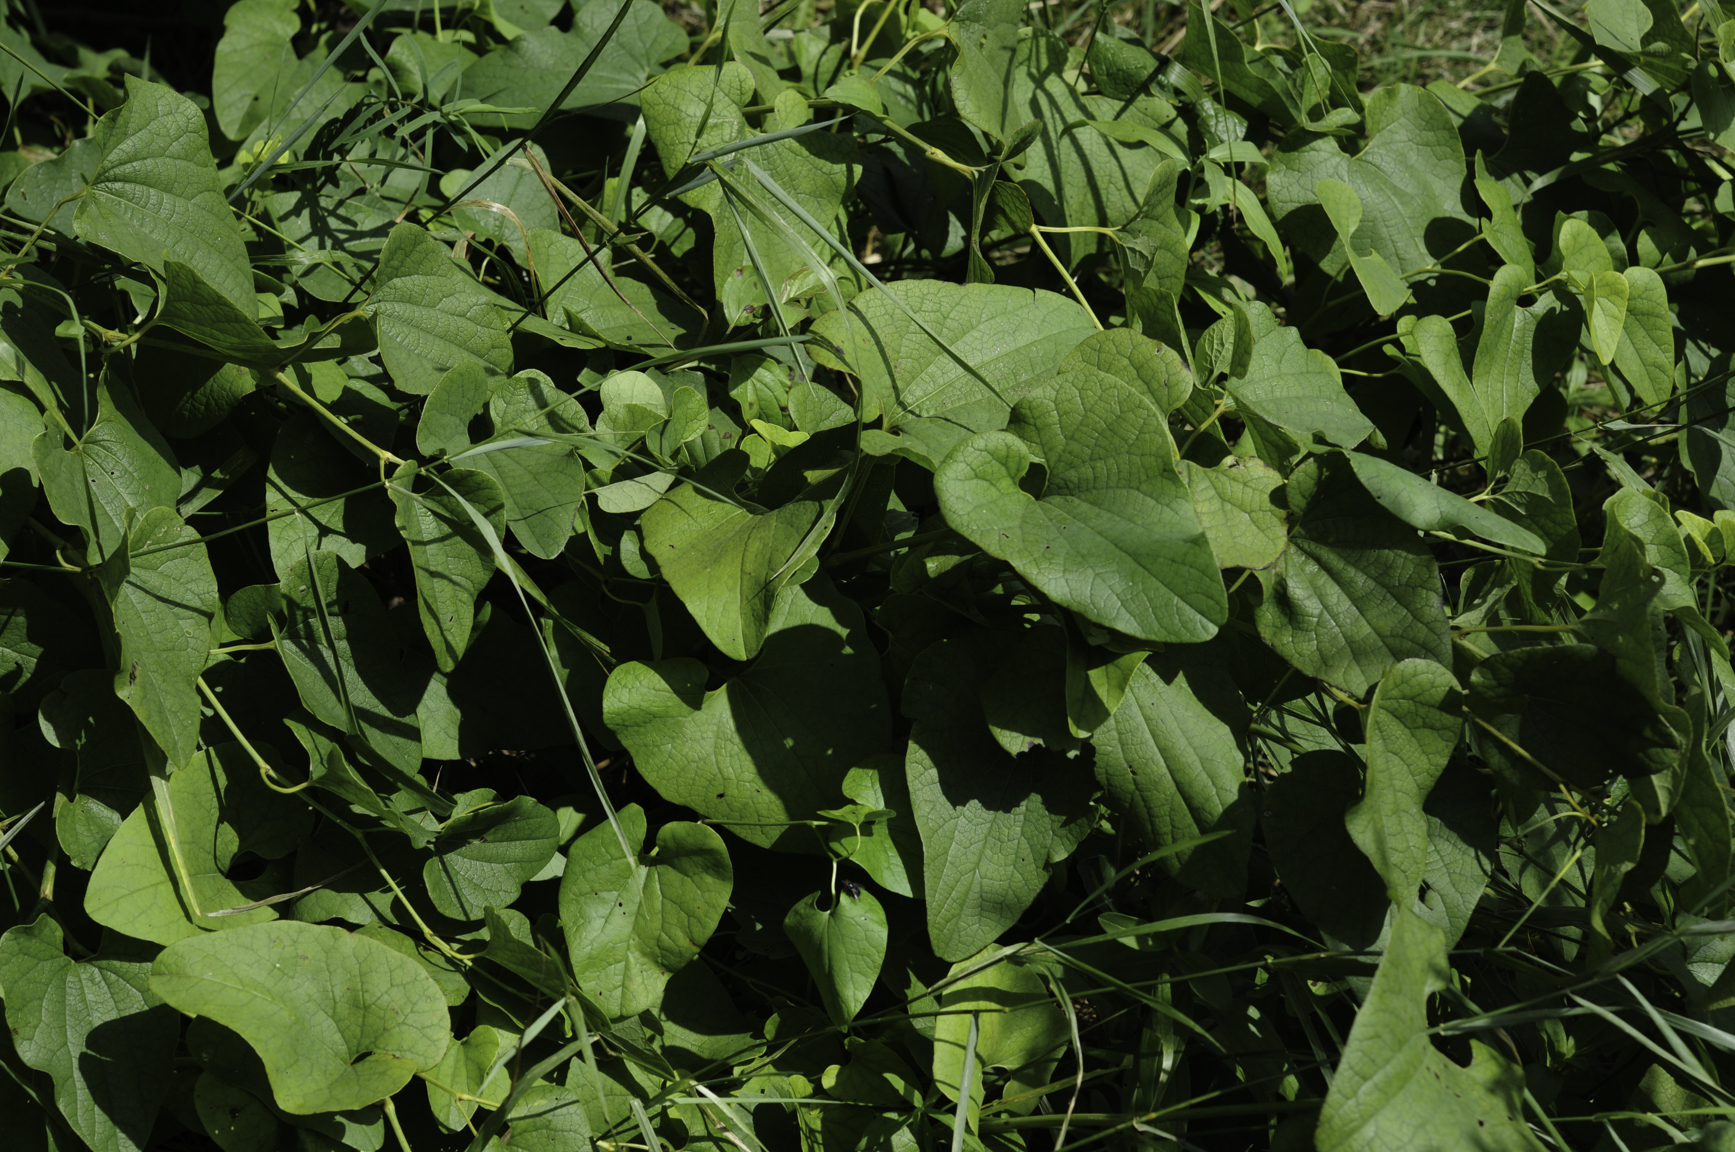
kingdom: Plantae
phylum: Tracheophyta
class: Magnoliopsida
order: Piperales
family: Aristolochiaceae
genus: Aristolochia
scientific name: Aristolochia clematitis
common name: Birthwort
